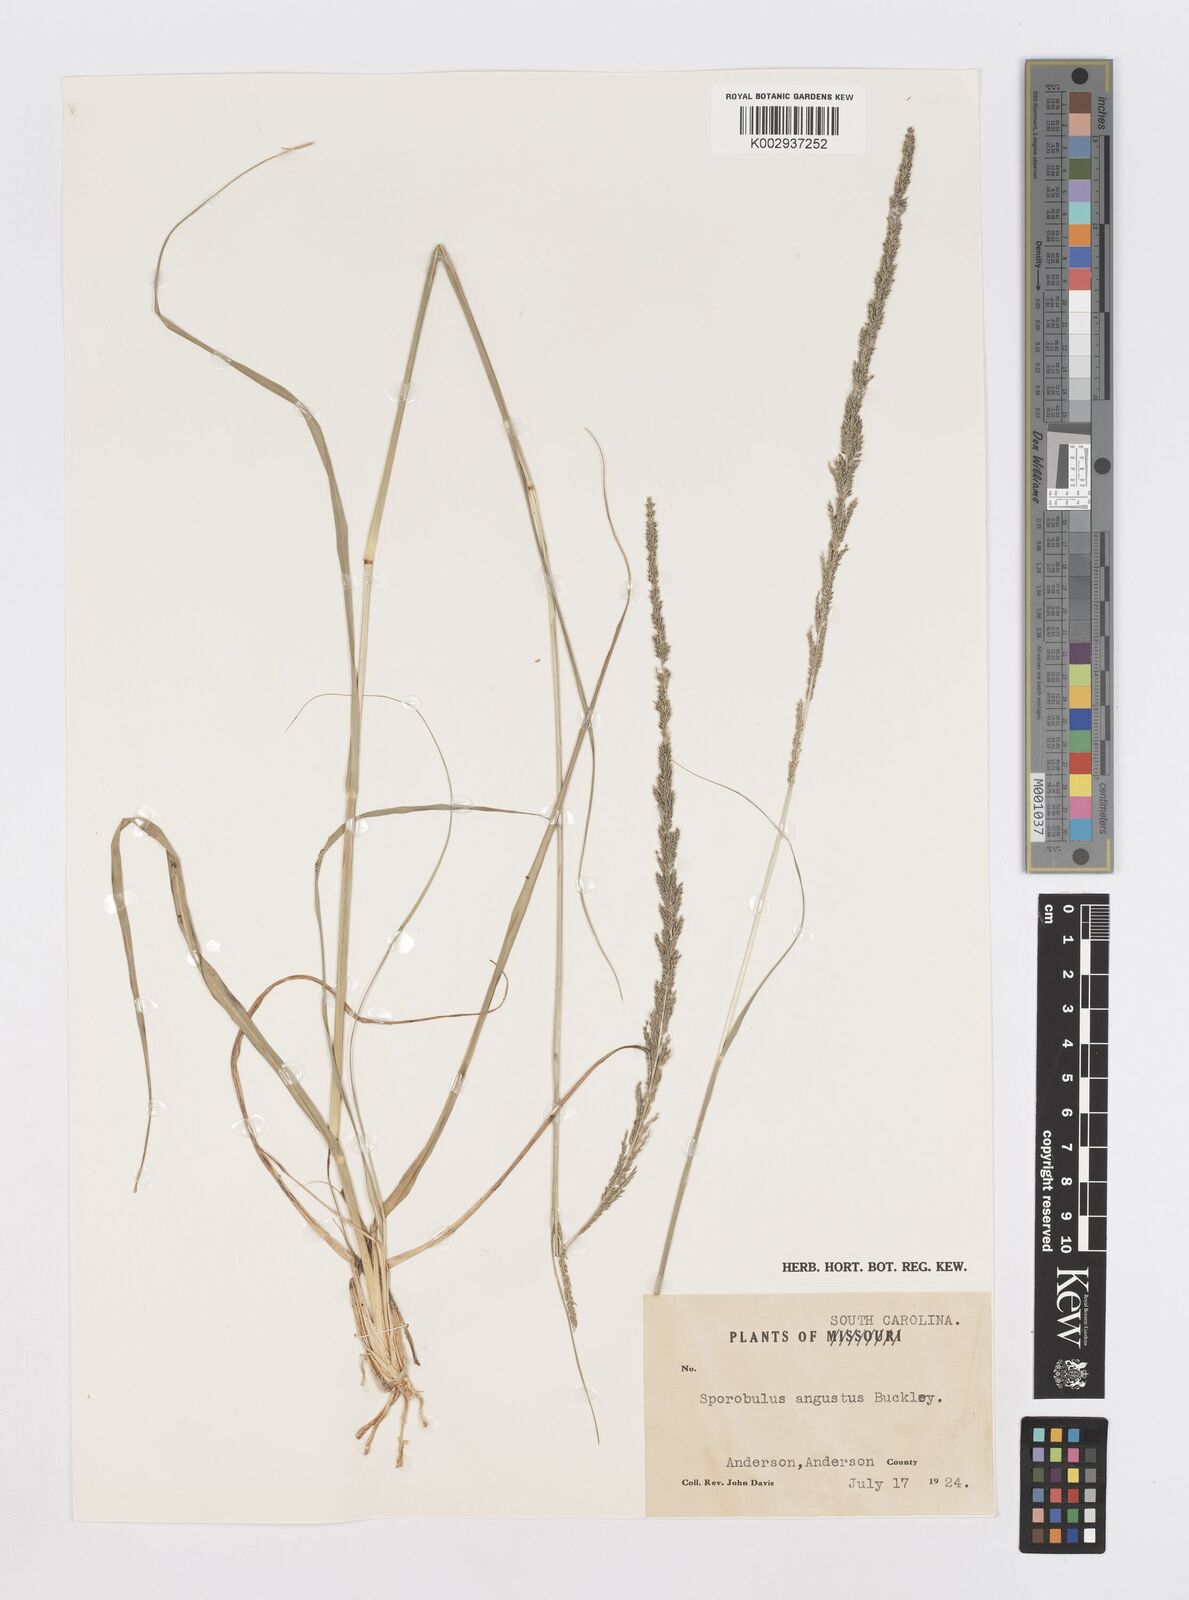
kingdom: Plantae
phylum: Tracheophyta
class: Liliopsida
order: Poales
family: Poaceae
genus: Sporobolus
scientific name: Sporobolus indicus
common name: Smut grass
